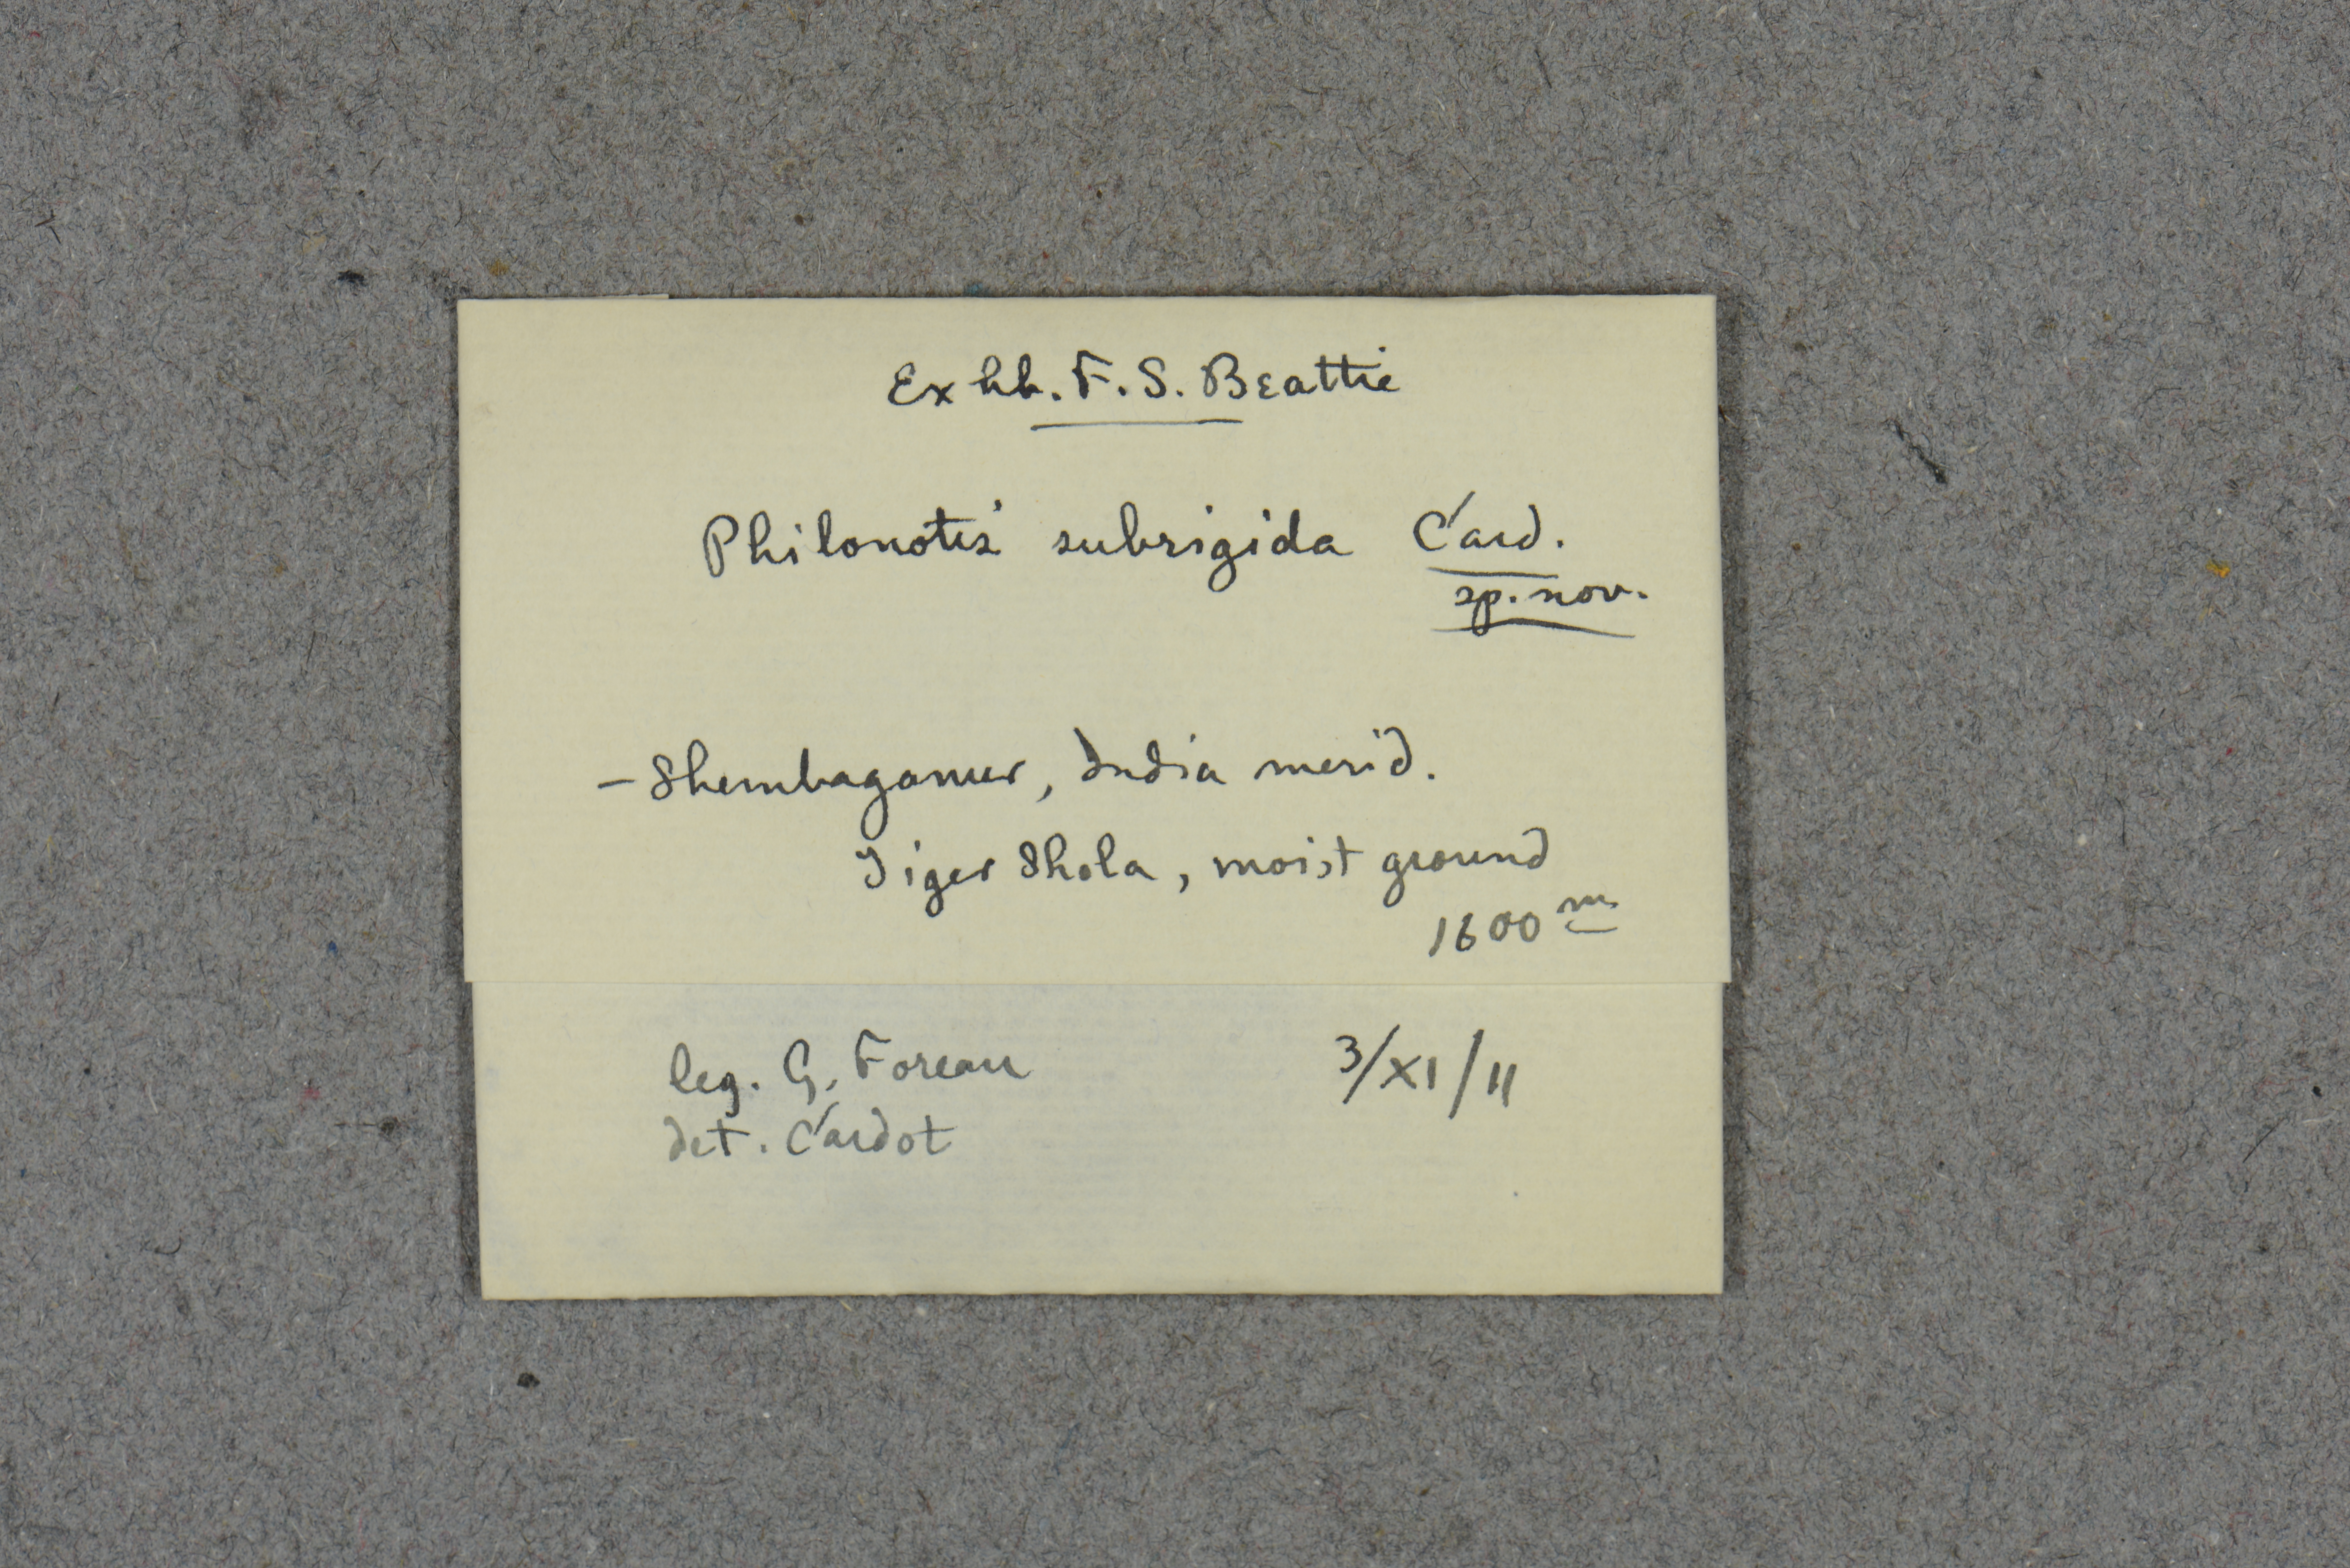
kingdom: Plantae
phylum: Bryophyta
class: Bryopsida
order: Bartramiales
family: Bartramiaceae
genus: Philonotis
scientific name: Philonotis subrigida
